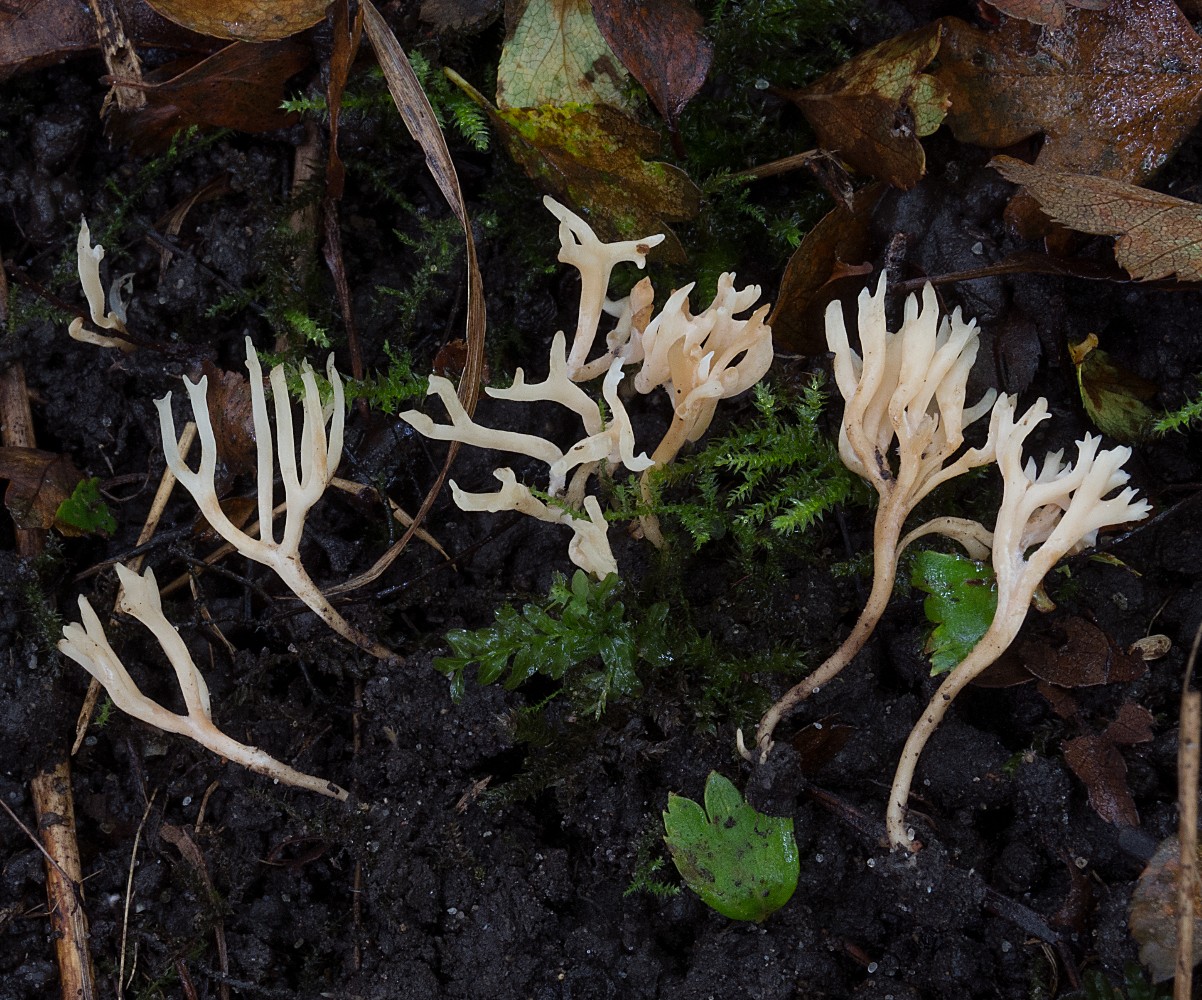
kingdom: Fungi
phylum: Basidiomycota
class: Agaricomycetes
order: Agaricales
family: Clavariaceae
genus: Ramariopsis
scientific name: Ramariopsis subtilis
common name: Slender coral
